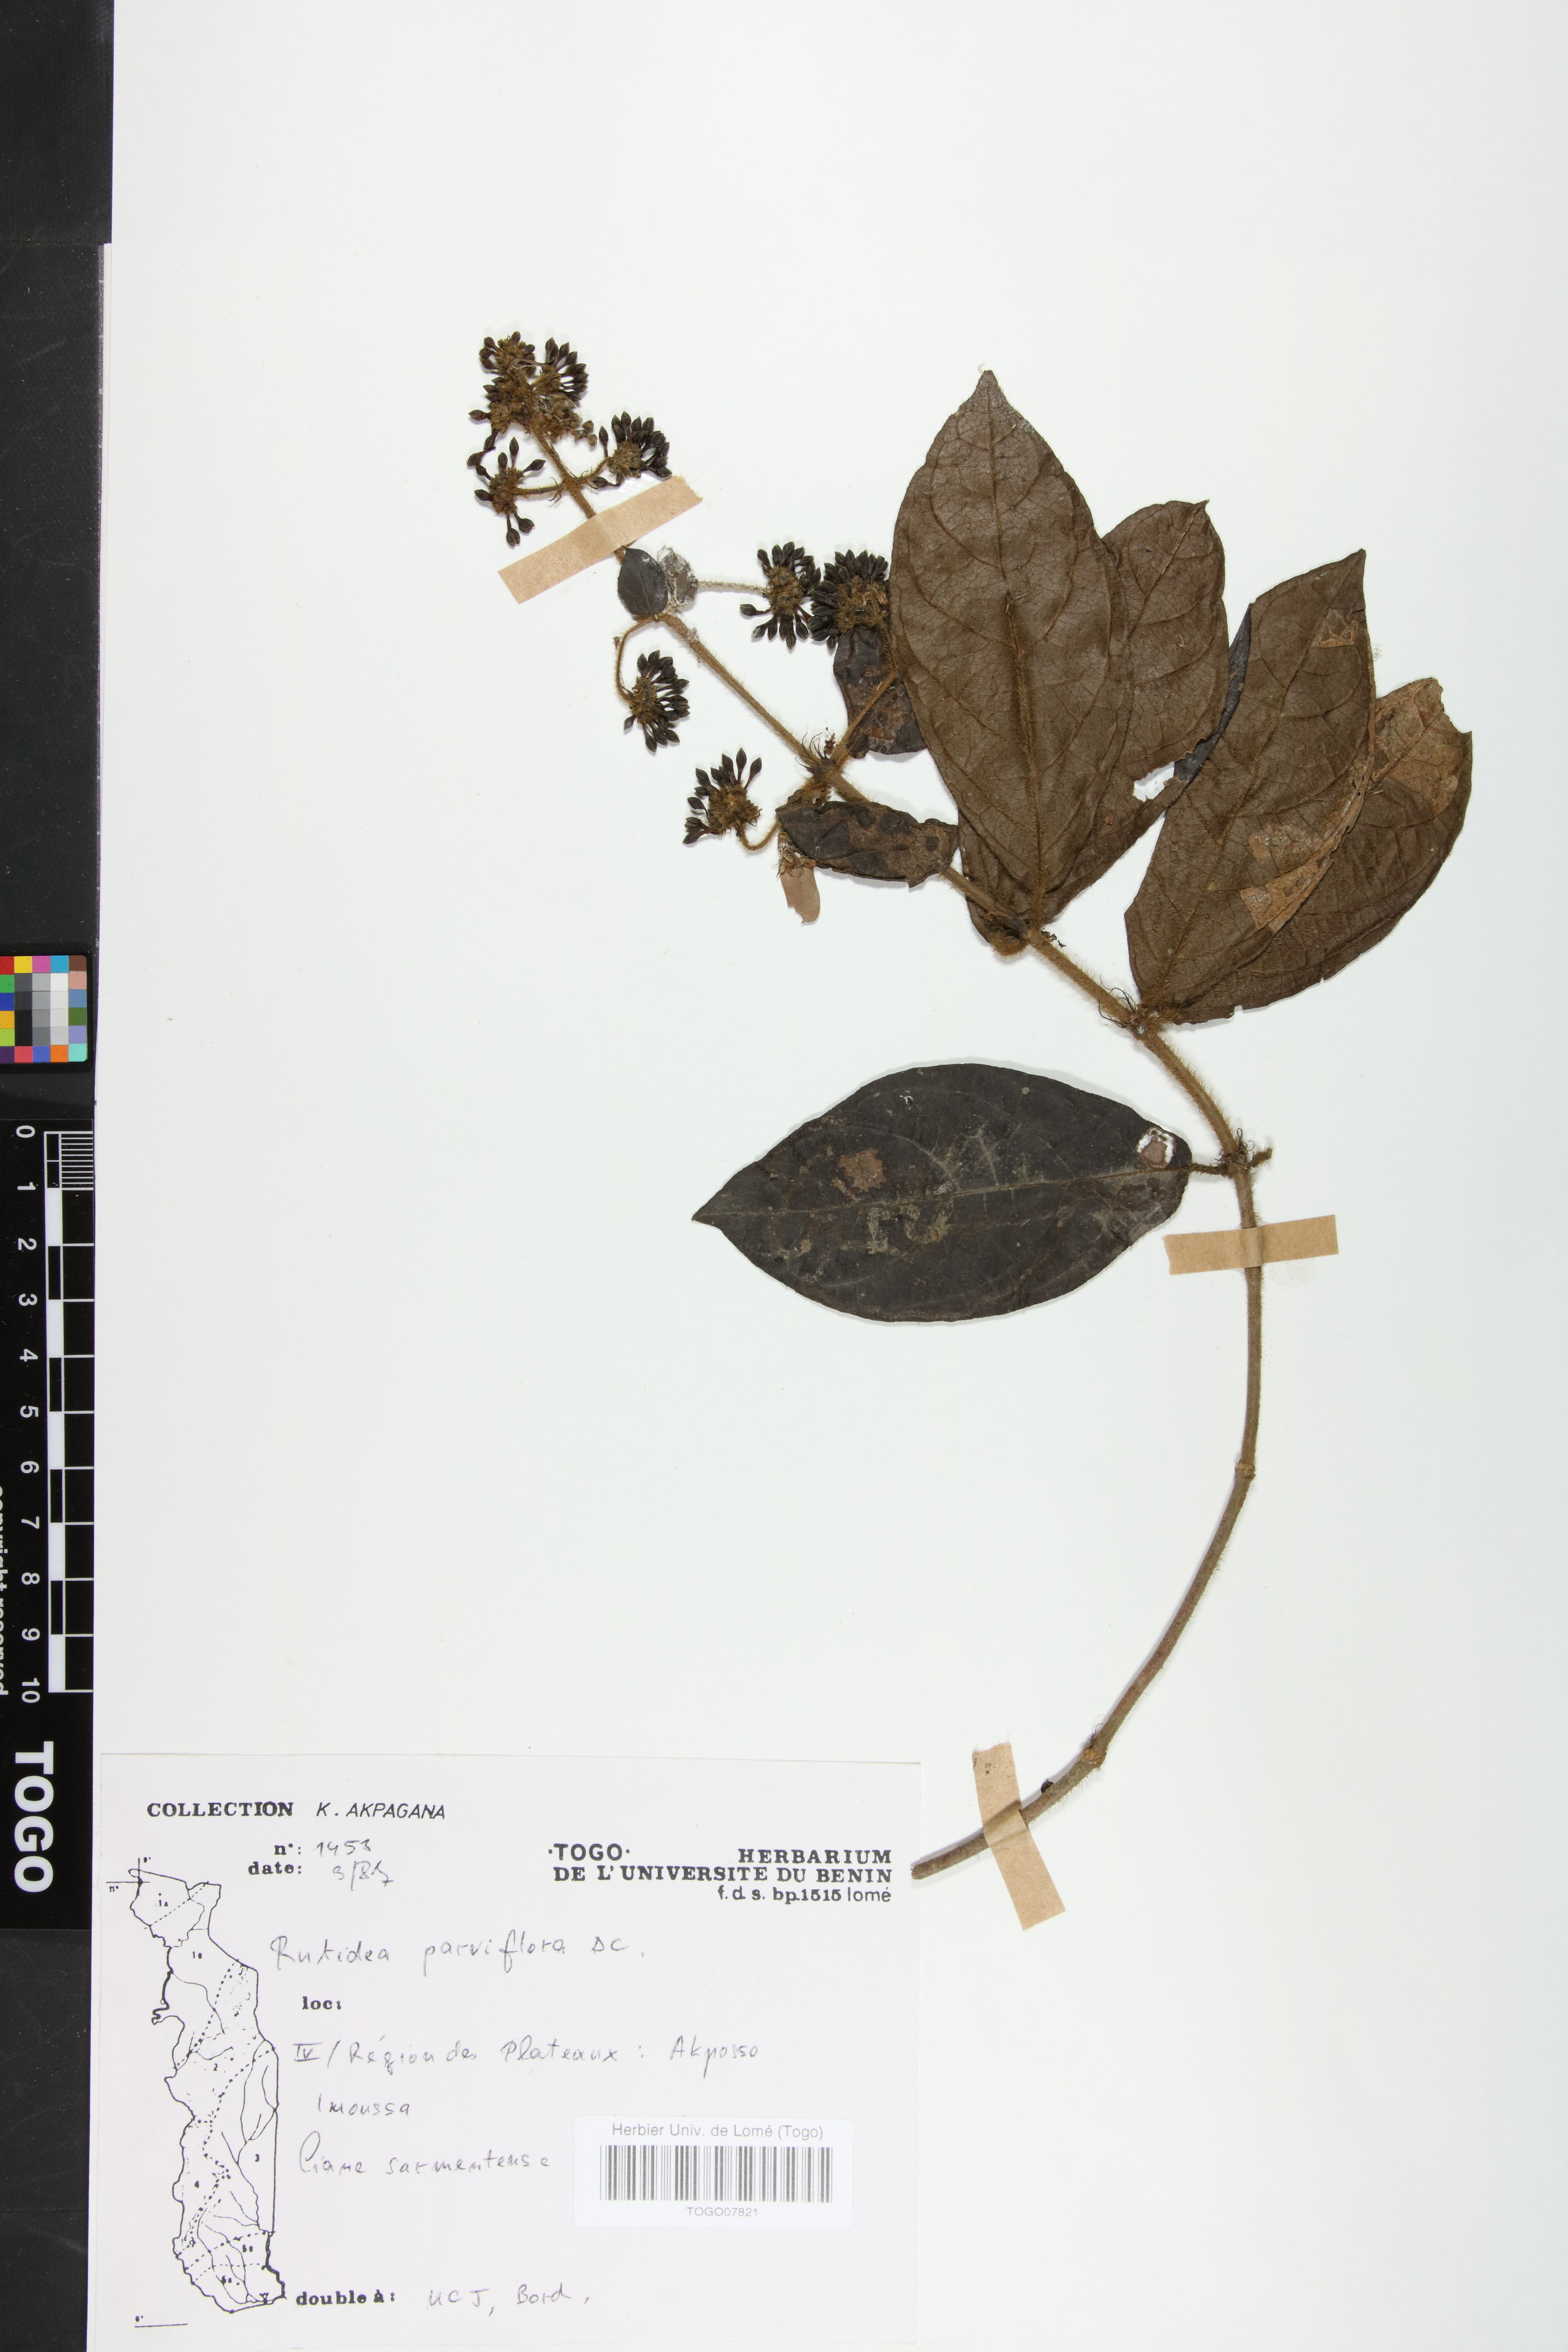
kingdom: Plantae
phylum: Tracheophyta
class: Magnoliopsida
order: Gentianales
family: Rubiaceae
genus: Rutidea
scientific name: Rutidea parviflora
